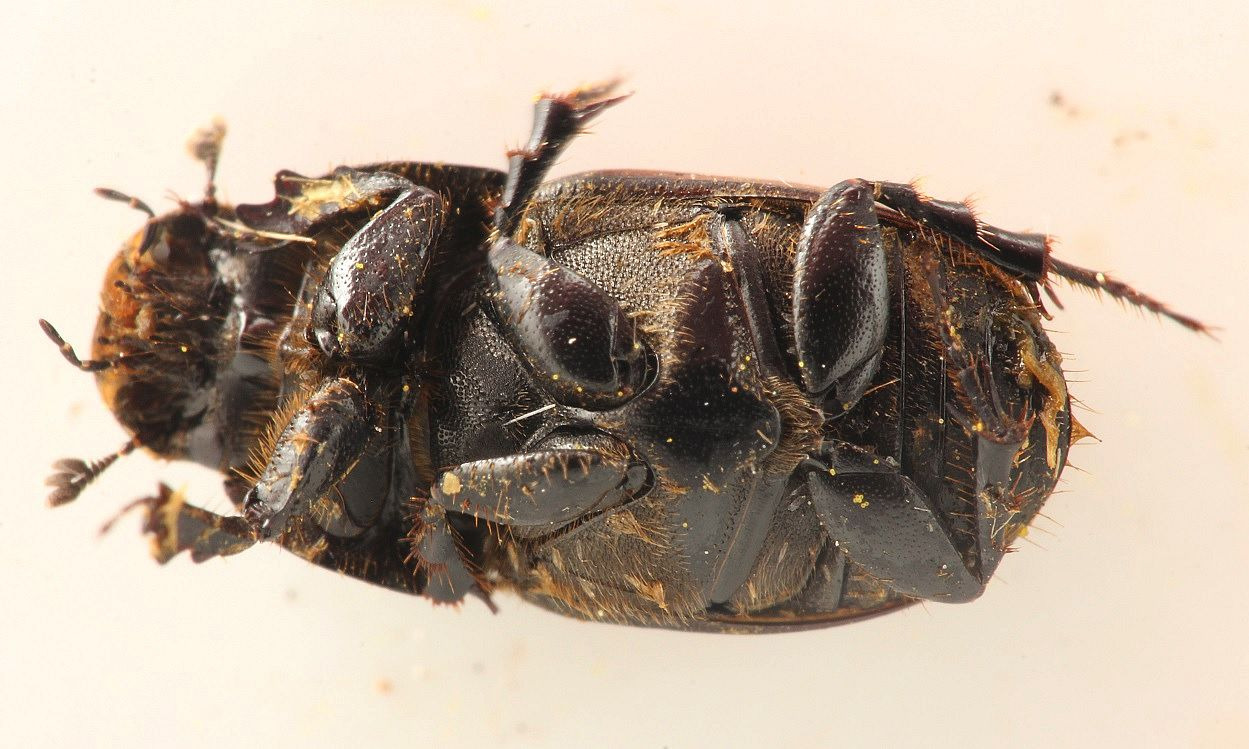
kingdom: Animalia
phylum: Arthropoda
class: Insecta
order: Coleoptera
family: Scarabaeidae
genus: Colobopterus
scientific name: Colobopterus erraticus
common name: Vagabonderende møgbille
